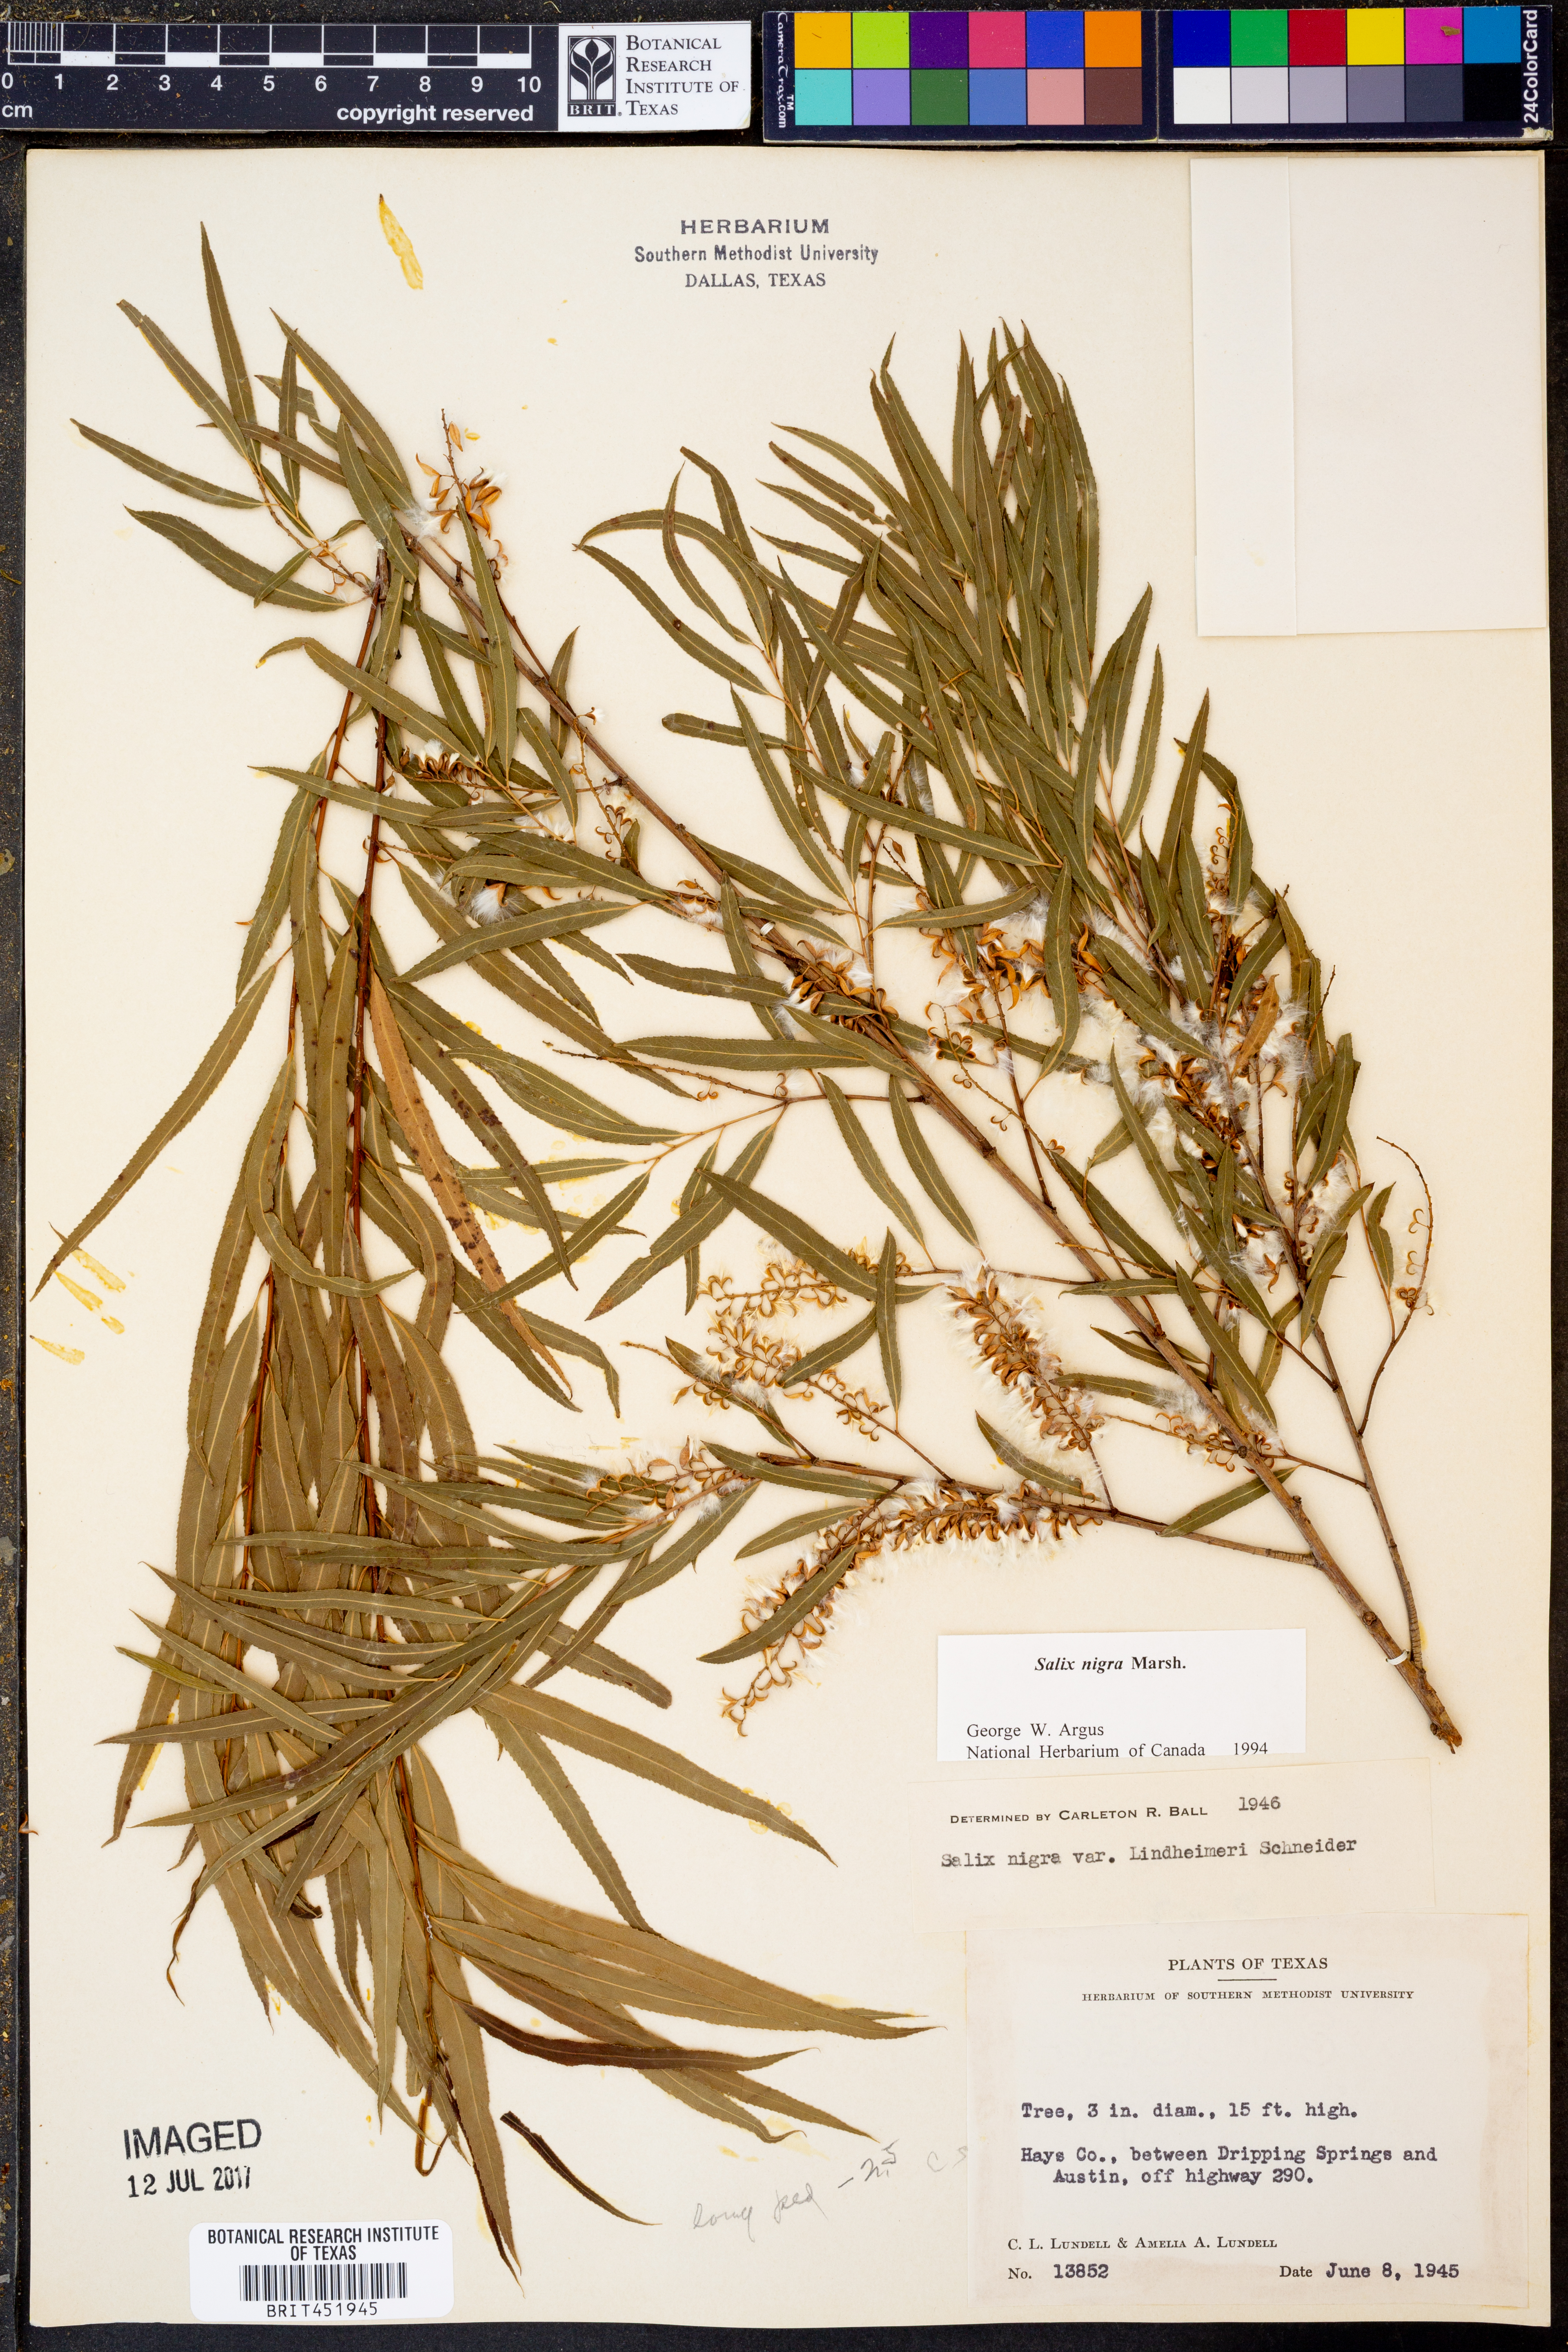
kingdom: Plantae
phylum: Tracheophyta
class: Magnoliopsida
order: Malpighiales
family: Salicaceae
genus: Salix
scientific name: Salix nigra
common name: Black willow
